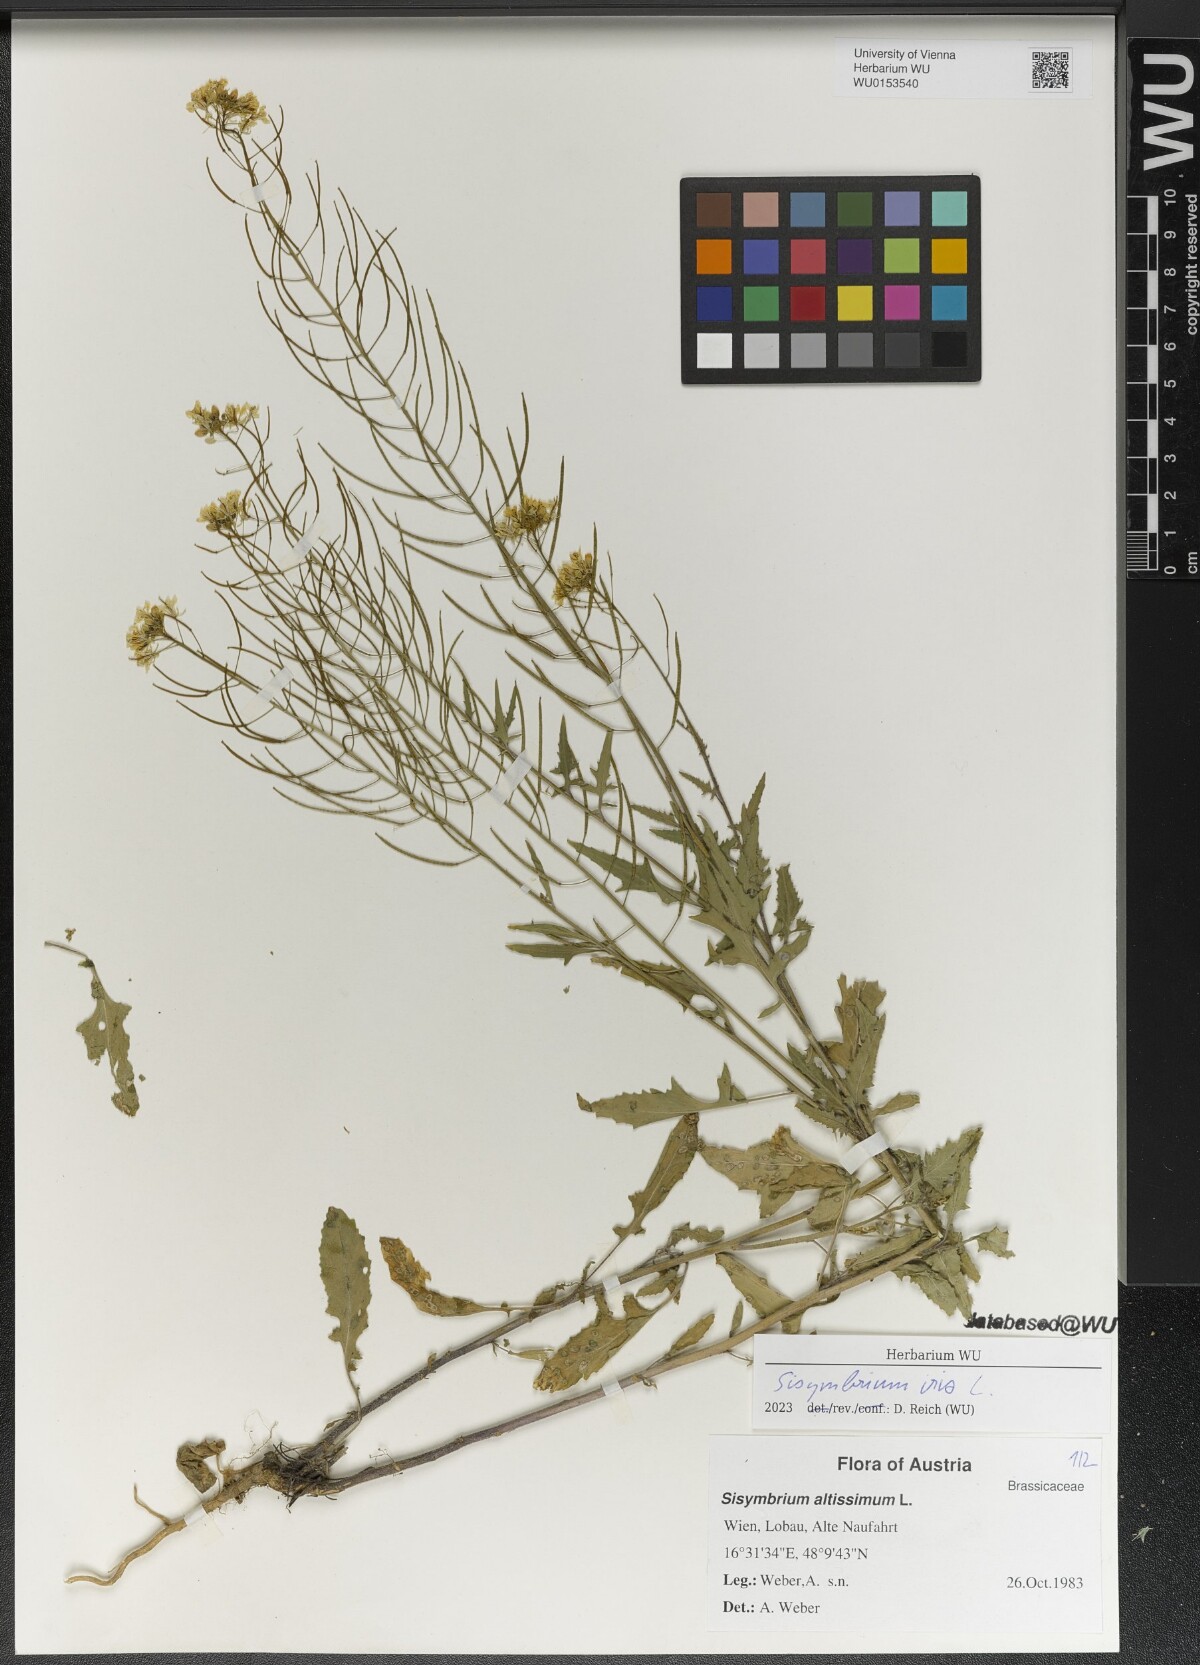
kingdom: Plantae
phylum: Tracheophyta
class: Magnoliopsida
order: Brassicales
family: Brassicaceae
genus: Sisymbrium
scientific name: Sisymbrium irio
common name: London rocket
